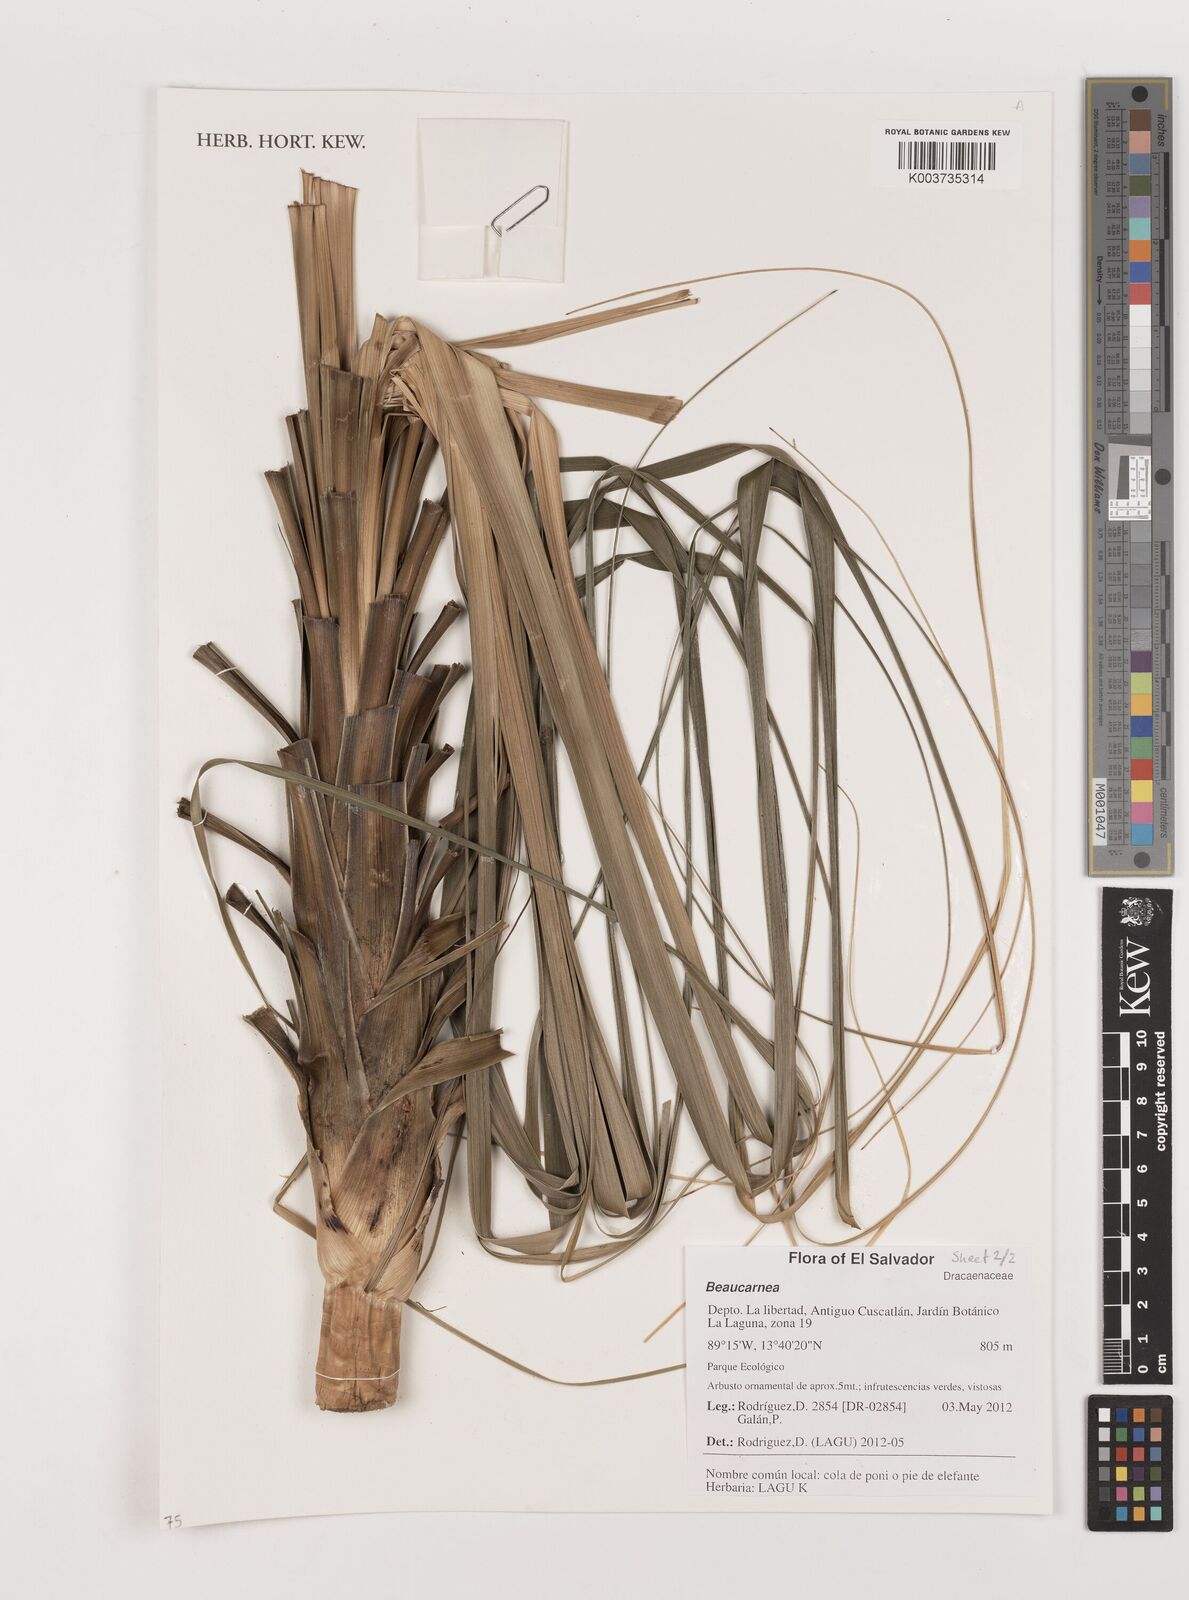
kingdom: Plantae
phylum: Tracheophyta
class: Liliopsida
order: Asparagales
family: Asparagaceae
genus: Beaucarnea
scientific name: Beaucarnea
